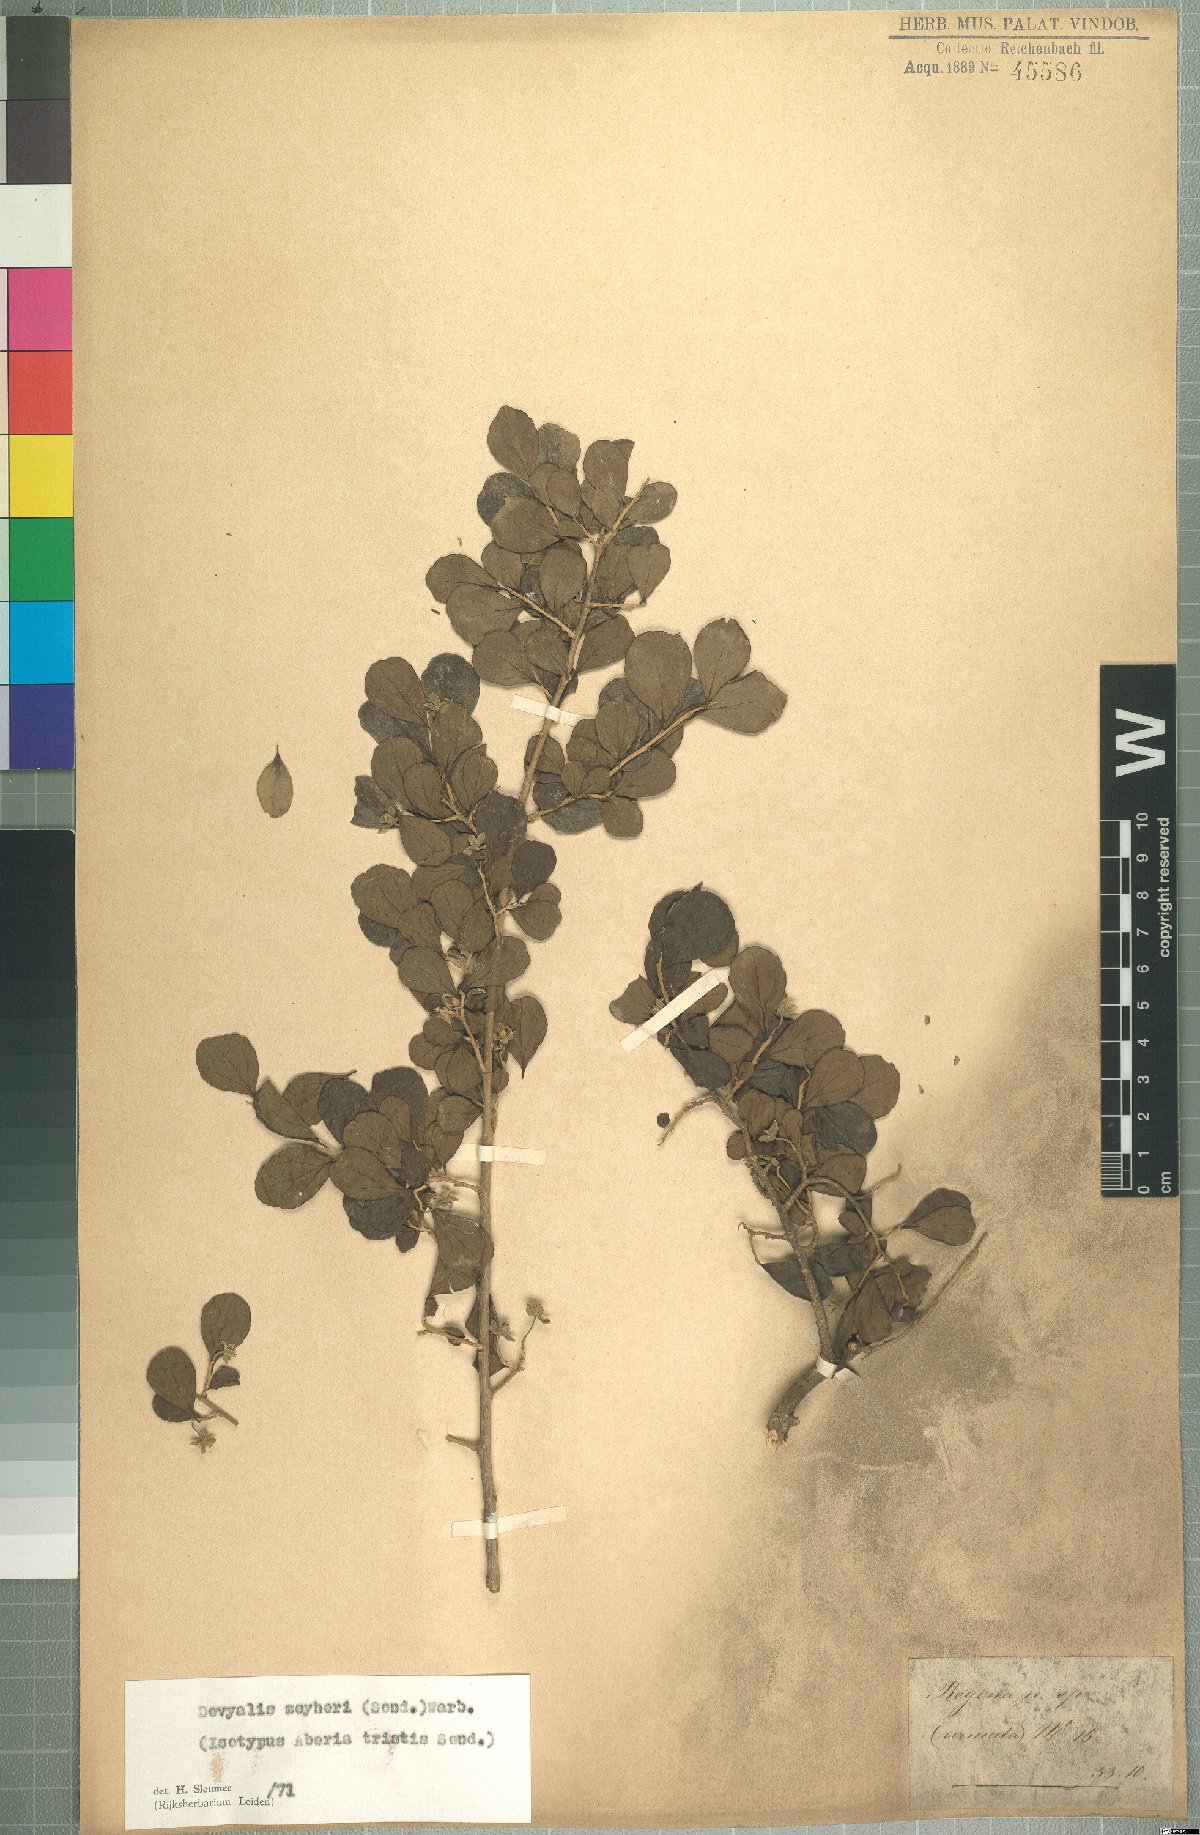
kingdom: Plantae
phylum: Tracheophyta
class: Magnoliopsida
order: Malpighiales
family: Salicaceae
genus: Dovyalis
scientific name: Dovyalis zeyheri
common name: Apricot sourberry
